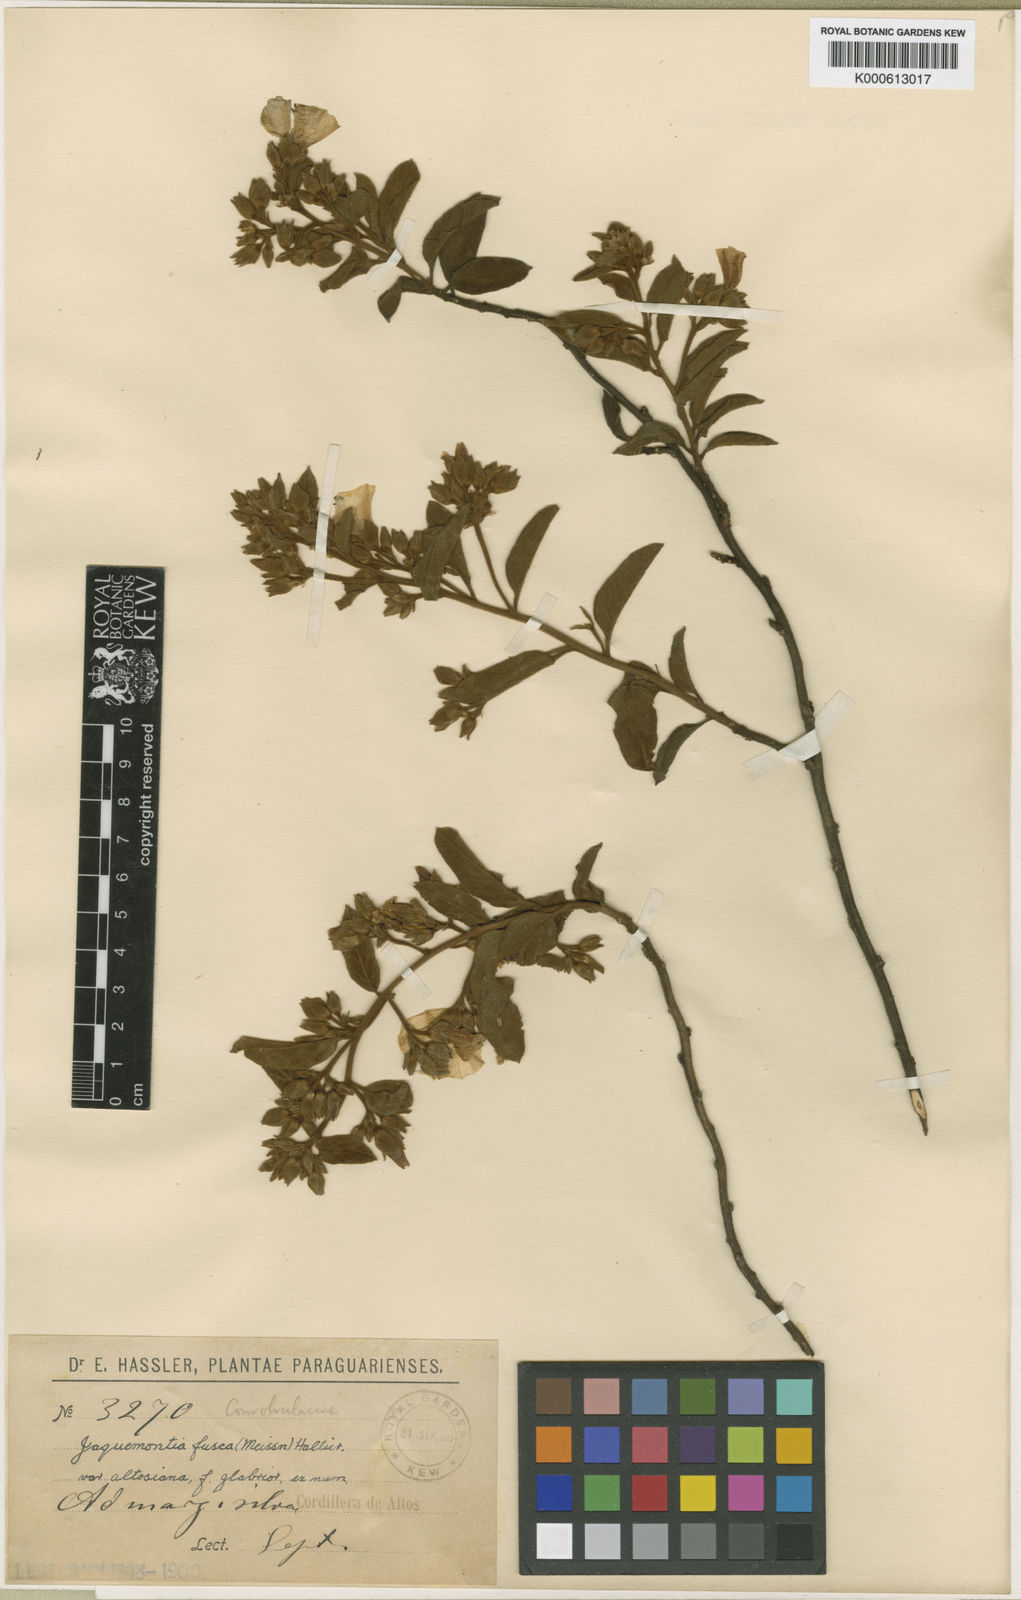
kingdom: Plantae
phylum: Tracheophyta
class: Magnoliopsida
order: Solanales
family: Convolvulaceae
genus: Jacquemontia
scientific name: Jacquemontia paraguayensis
